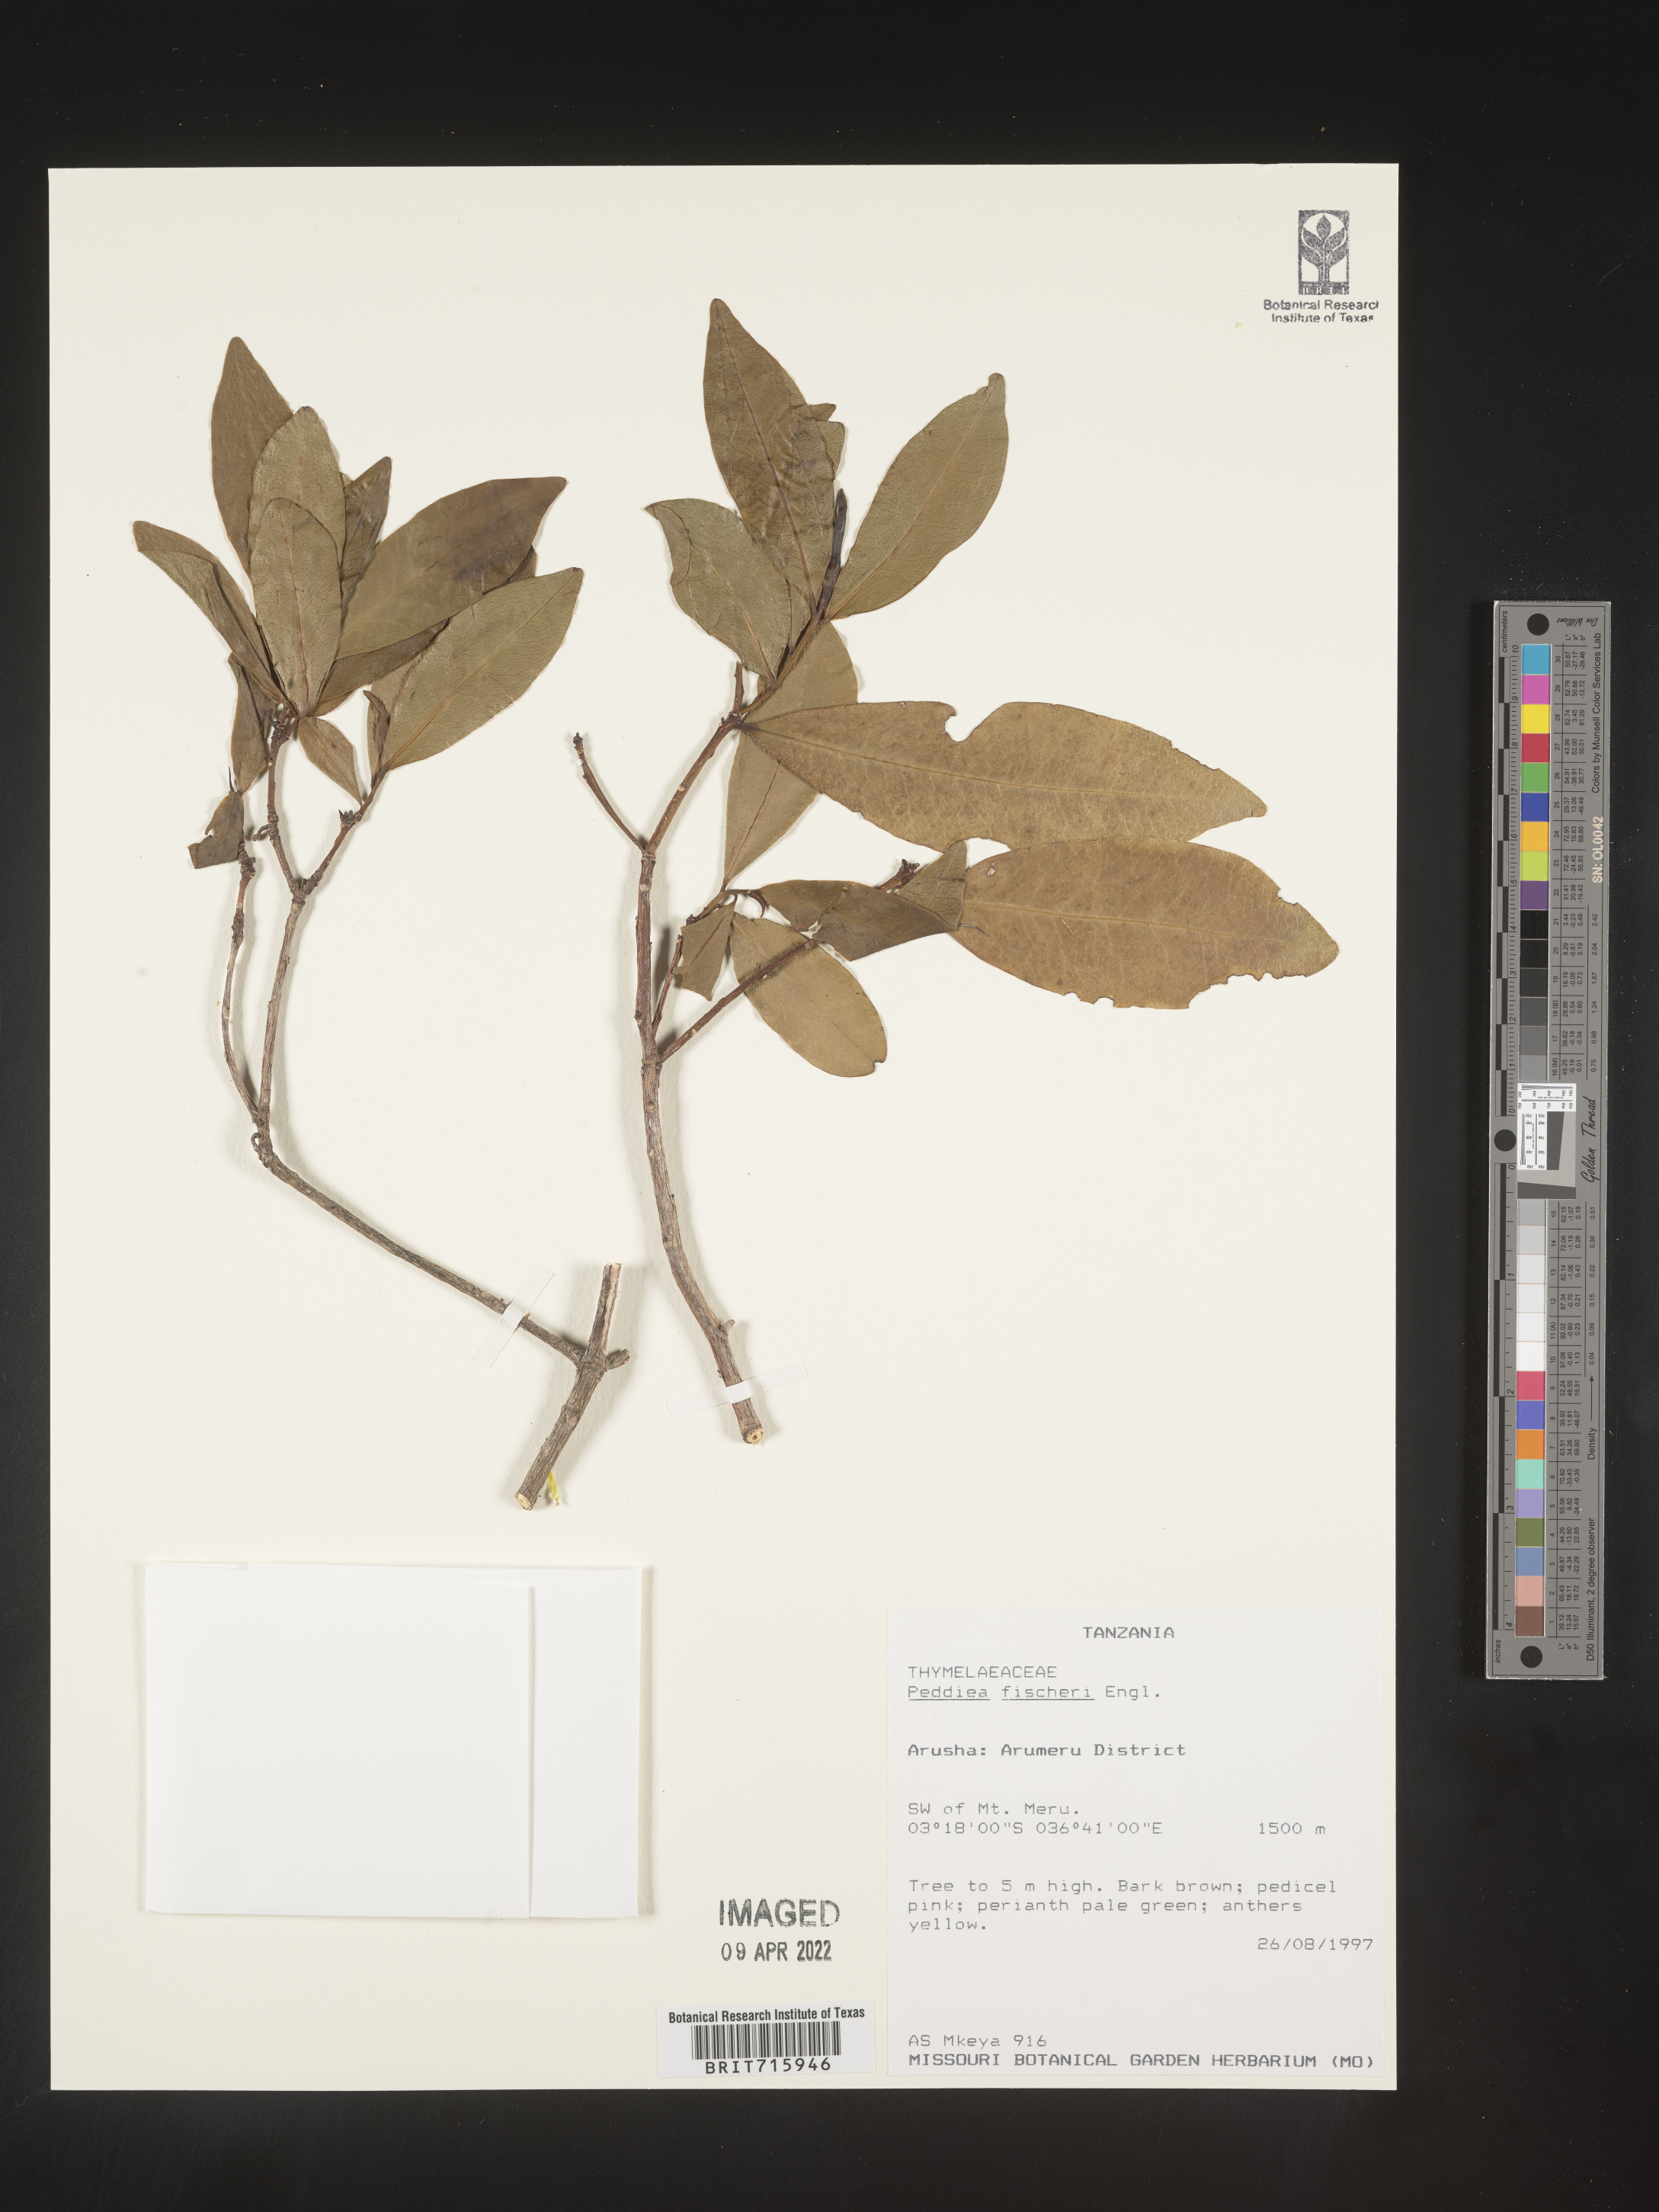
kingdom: Plantae
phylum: Tracheophyta
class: Magnoliopsida
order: Malvales
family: Thymelaeaceae
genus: Peddiea
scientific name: Peddiea
